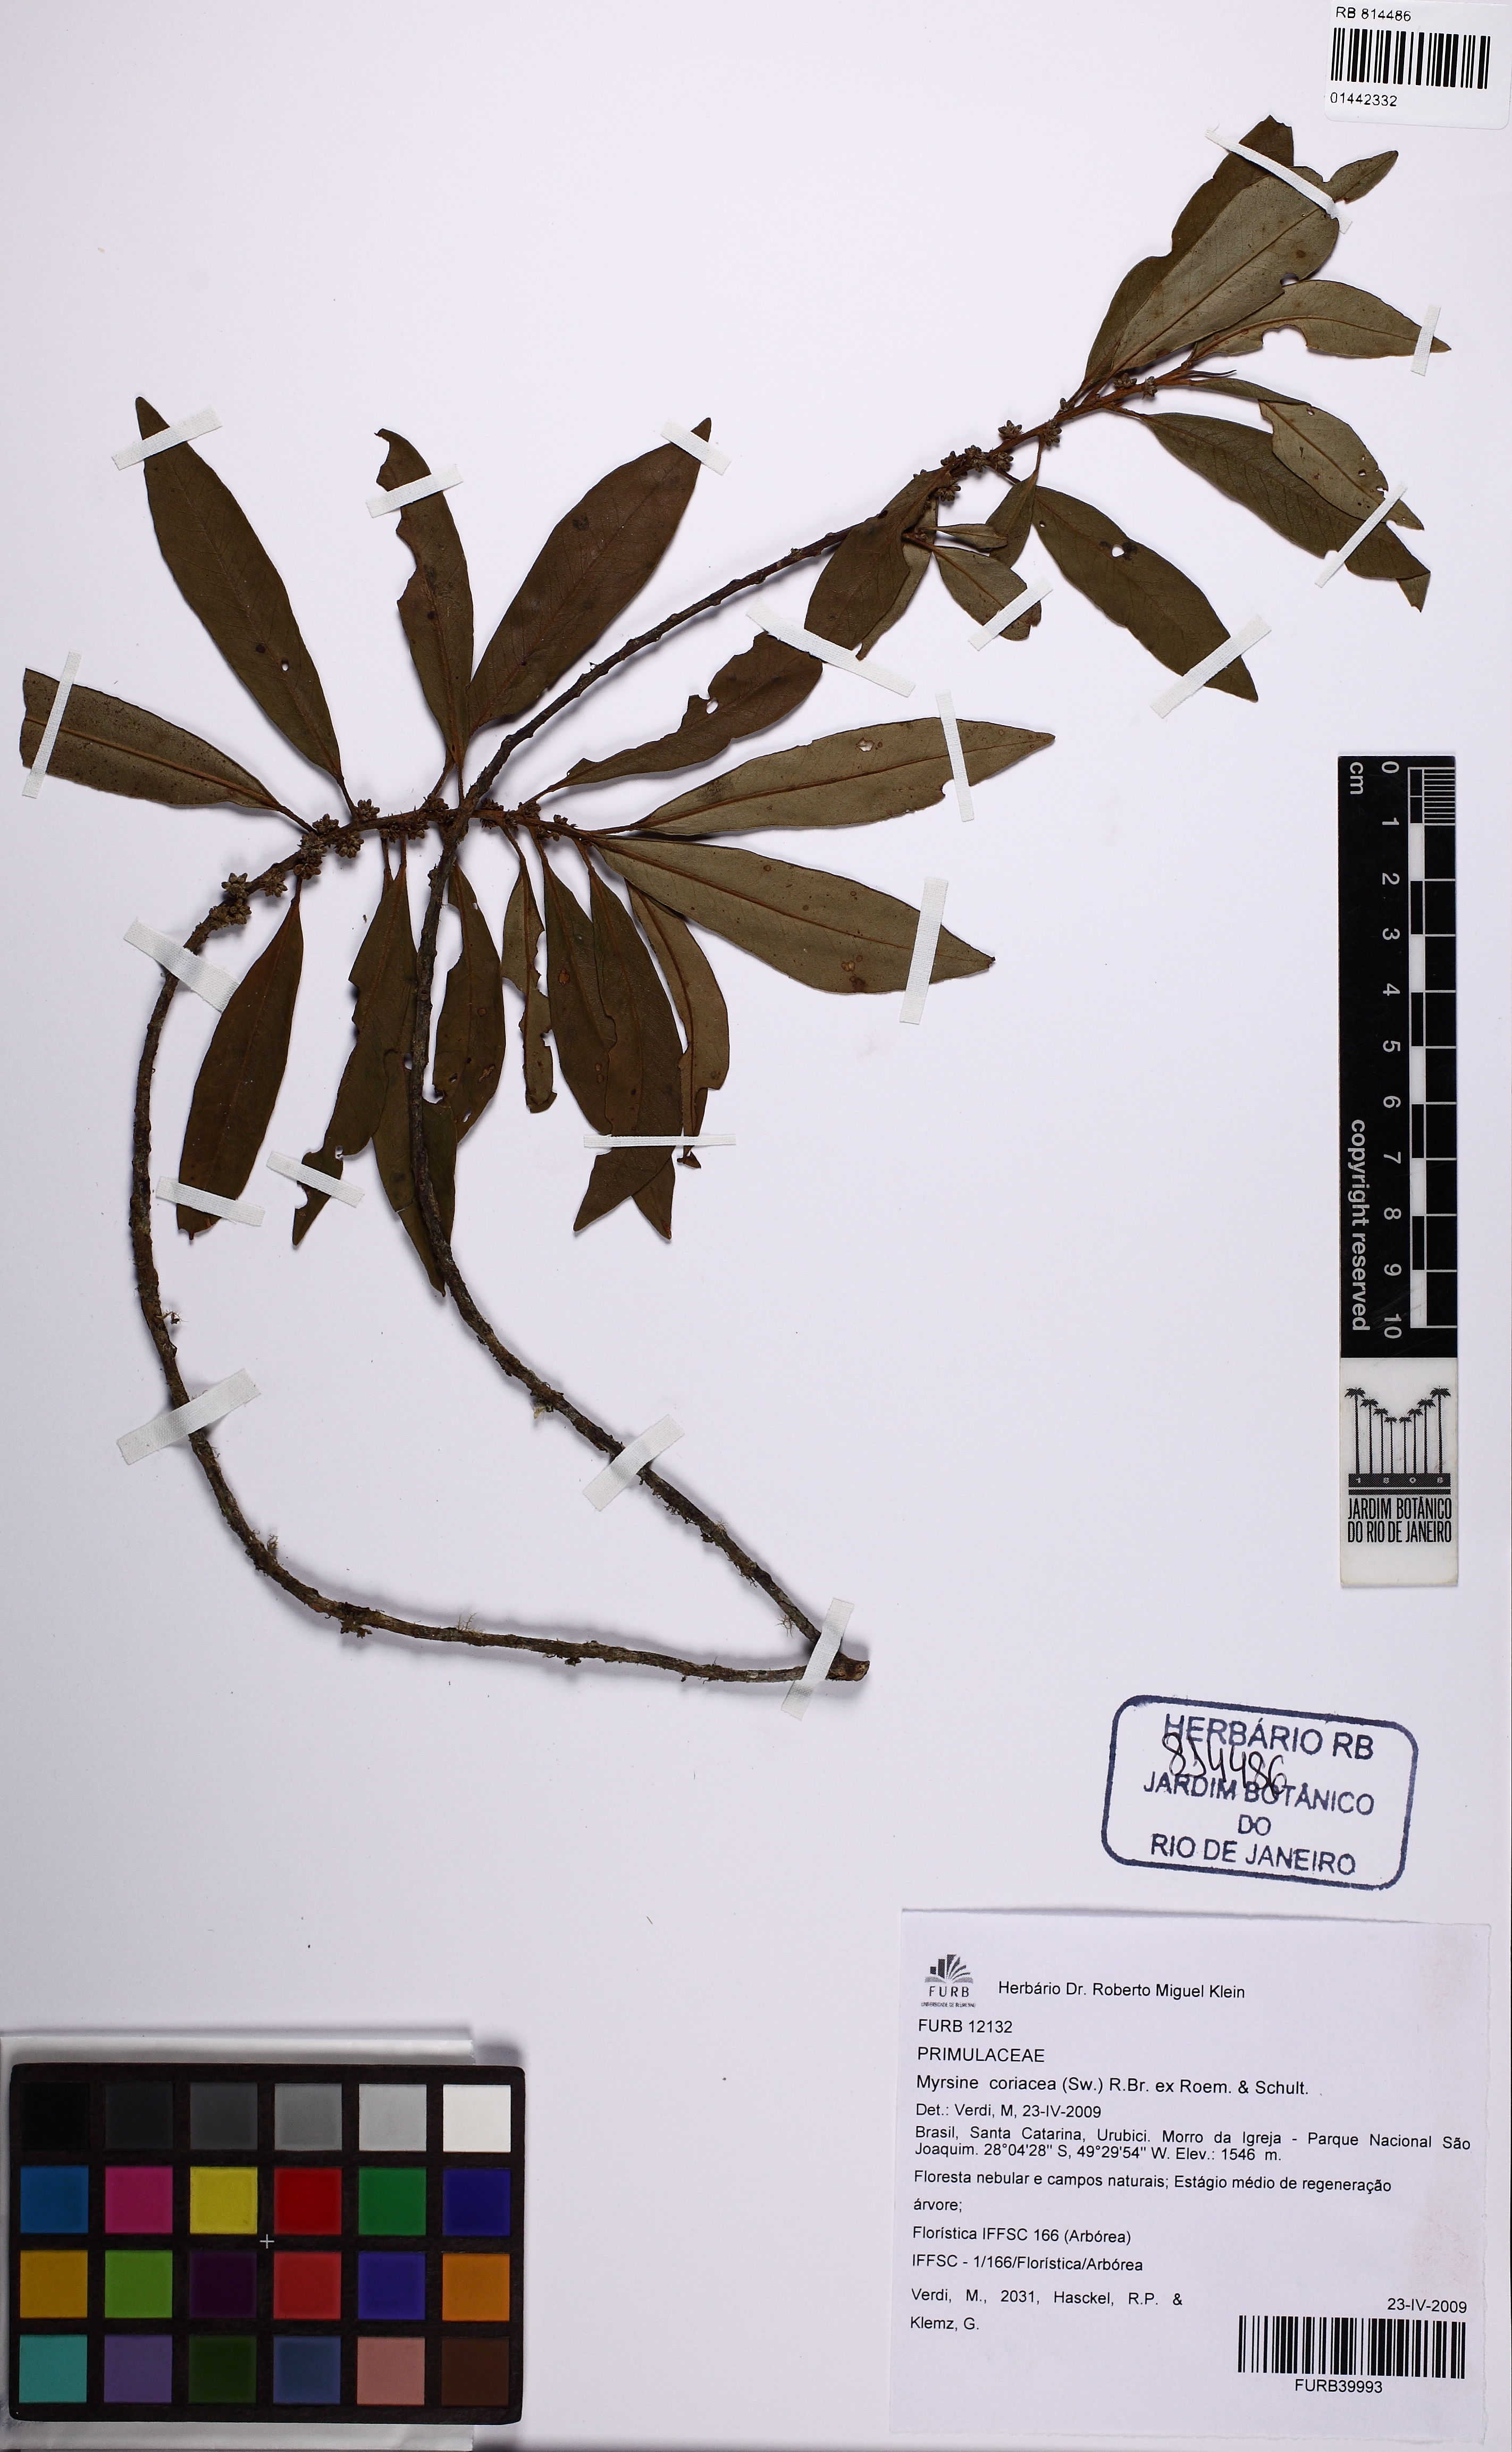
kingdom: Plantae
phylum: Tracheophyta
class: Magnoliopsida
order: Ericales
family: Primulaceae
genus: Myrsine
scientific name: Myrsine coriacea
